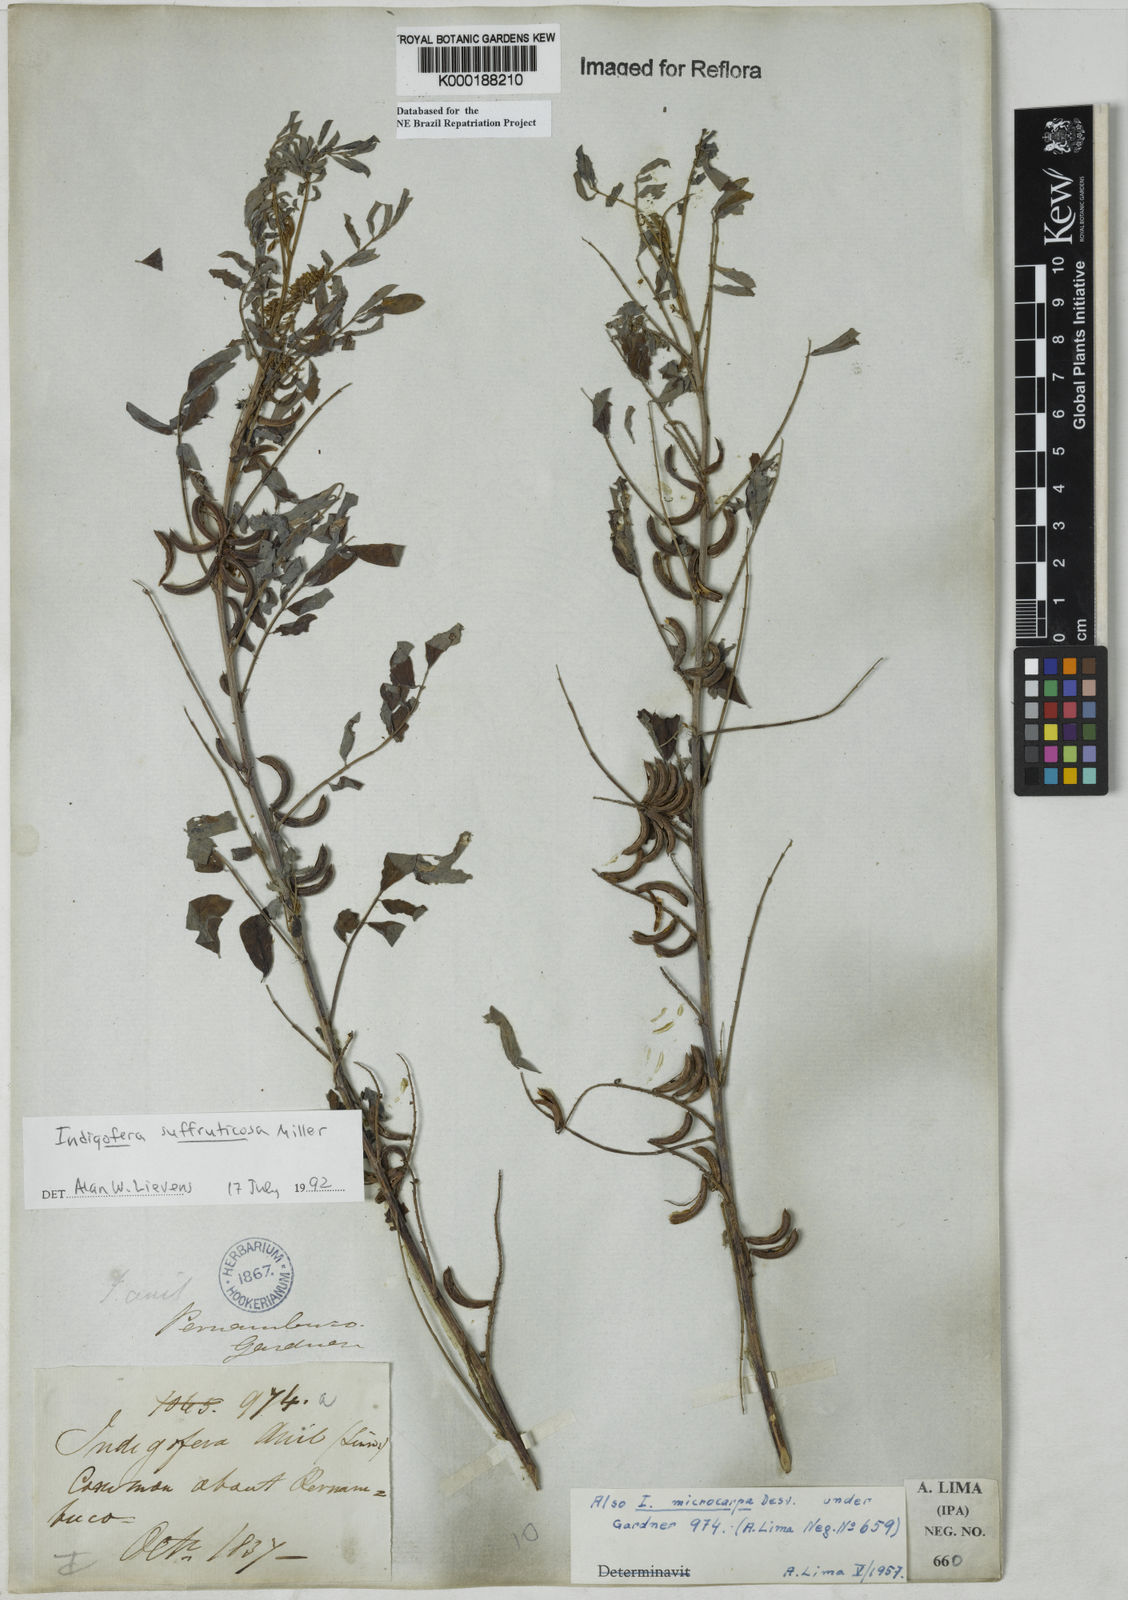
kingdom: Plantae
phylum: Tracheophyta
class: Magnoliopsida
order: Fabales
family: Fabaceae
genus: Indigofera
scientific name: Indigofera suffruticosa
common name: Anil de pasto
